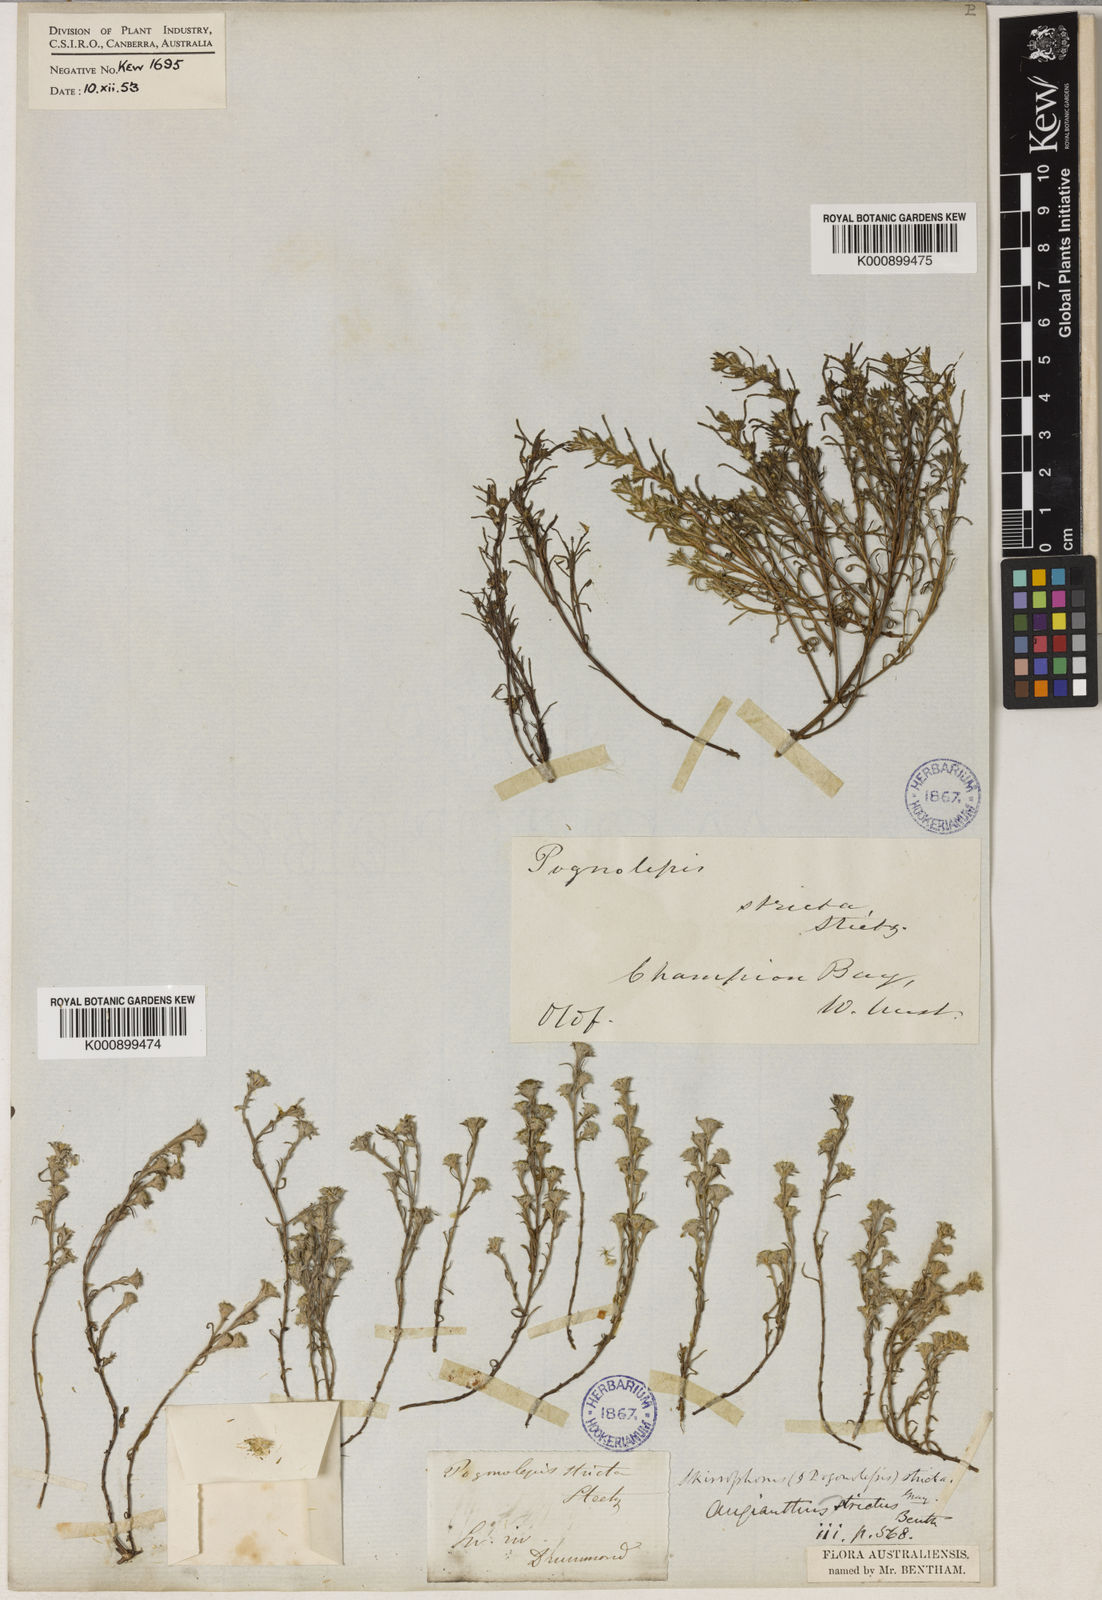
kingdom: Plantae
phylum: Tracheophyta
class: Magnoliopsida
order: Asterales
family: Asteraceae
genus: Pogonolepis
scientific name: Pogonolepis stricta
